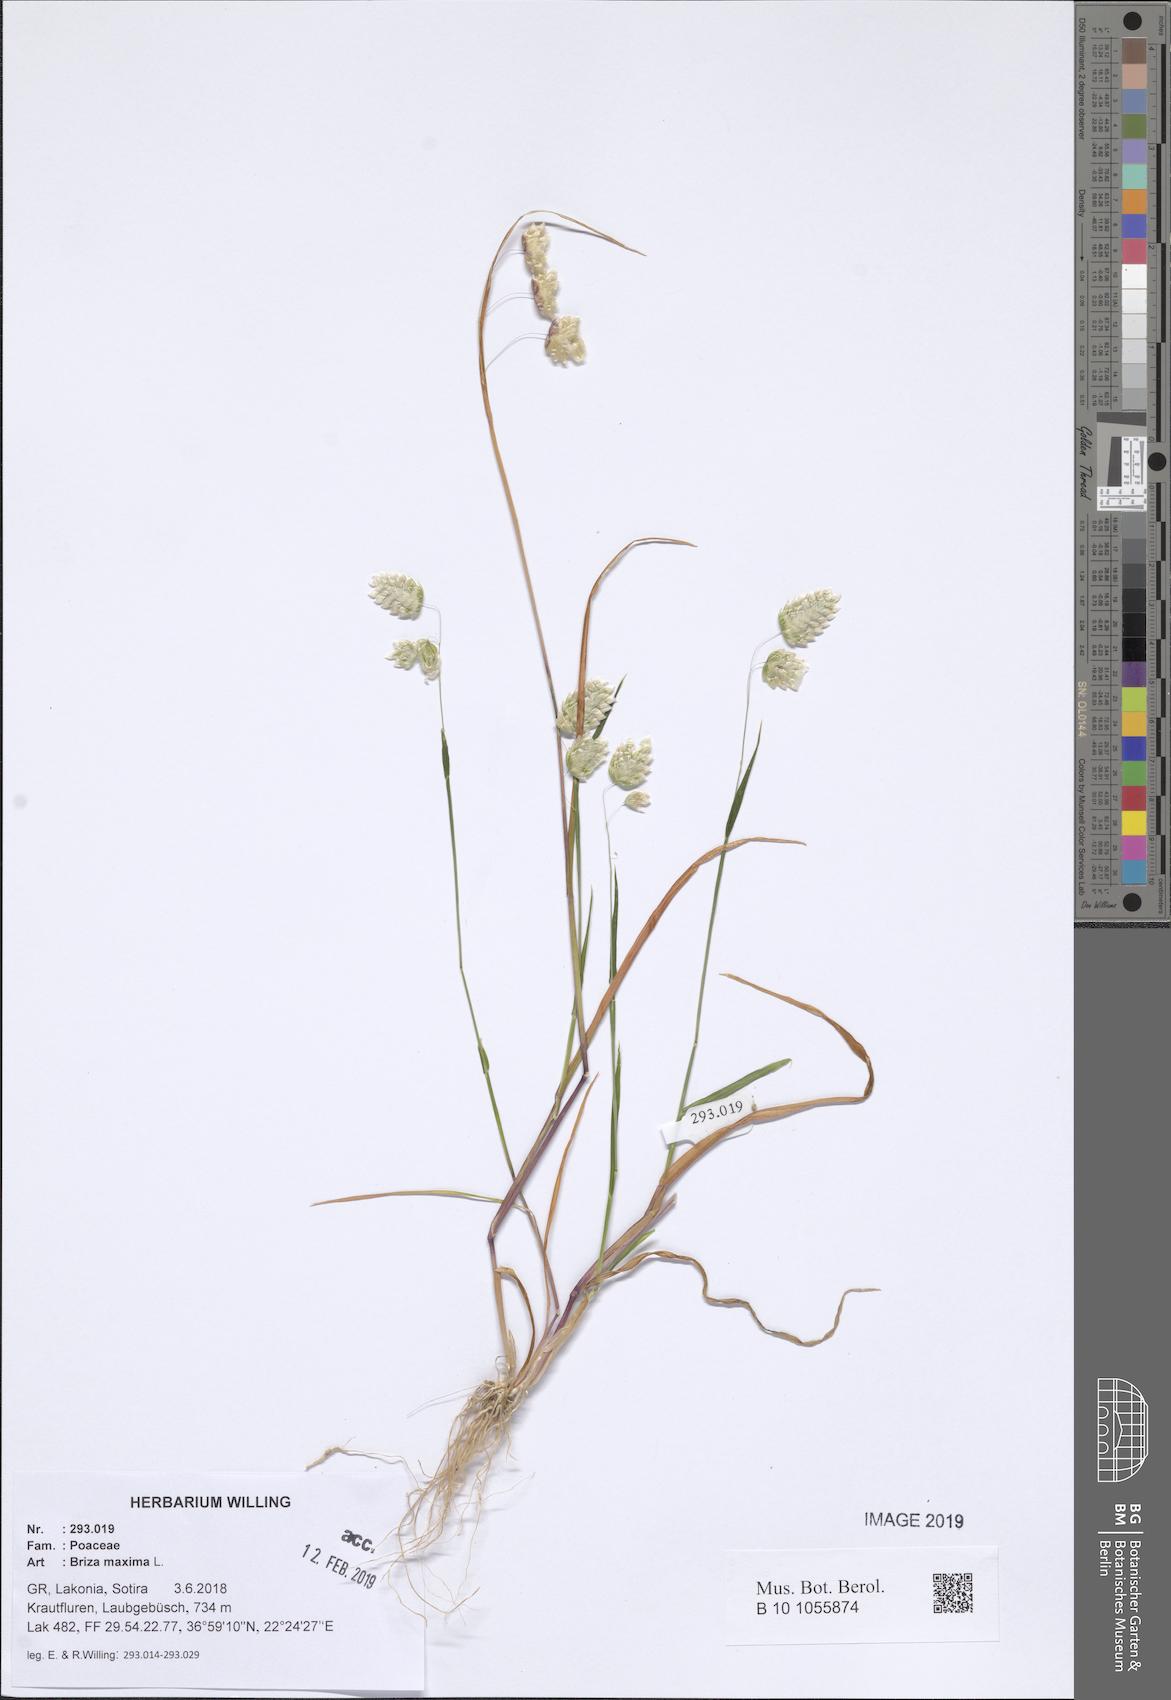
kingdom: Plantae
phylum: Tracheophyta
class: Liliopsida
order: Poales
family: Poaceae
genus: Briza
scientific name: Briza maxima
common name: Big quakinggrass
